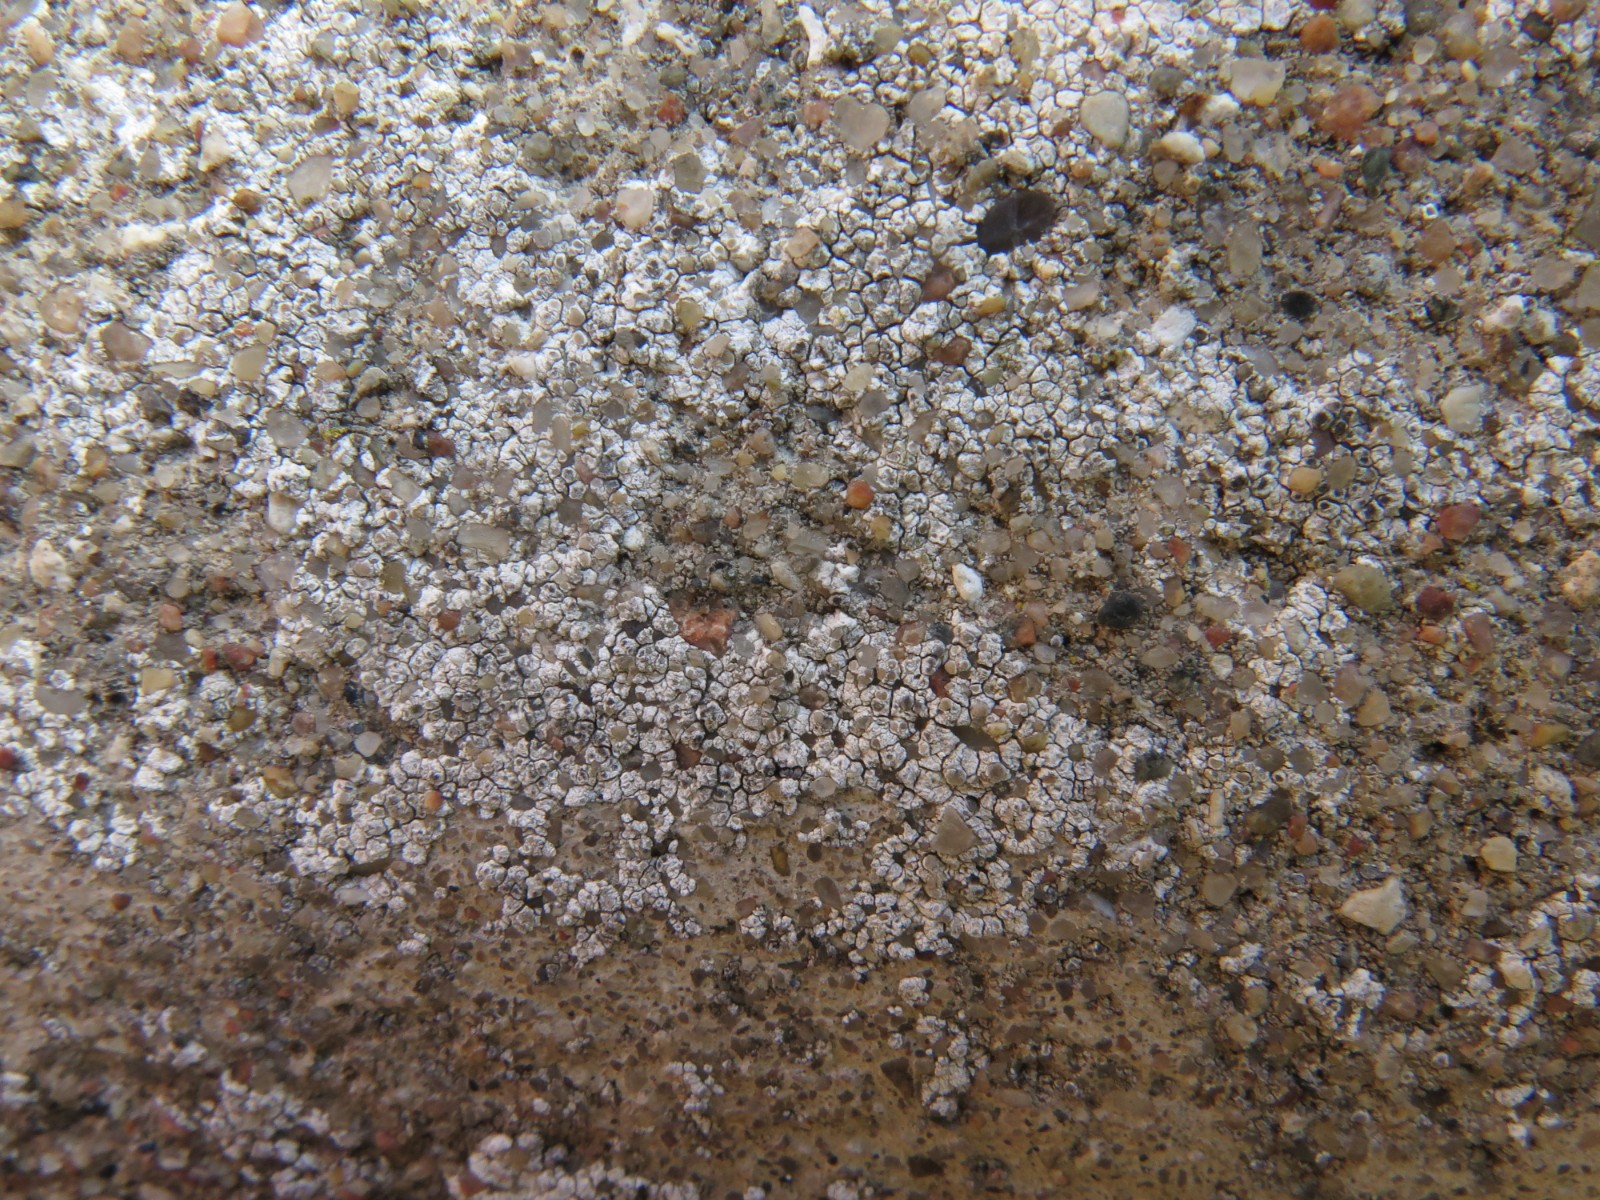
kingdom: Fungi
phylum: Ascomycota
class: Lecanoromycetes
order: Lecanorales
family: Lecanoraceae
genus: Polyozosia
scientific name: Polyozosia albescens
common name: cement-kantskivelav
